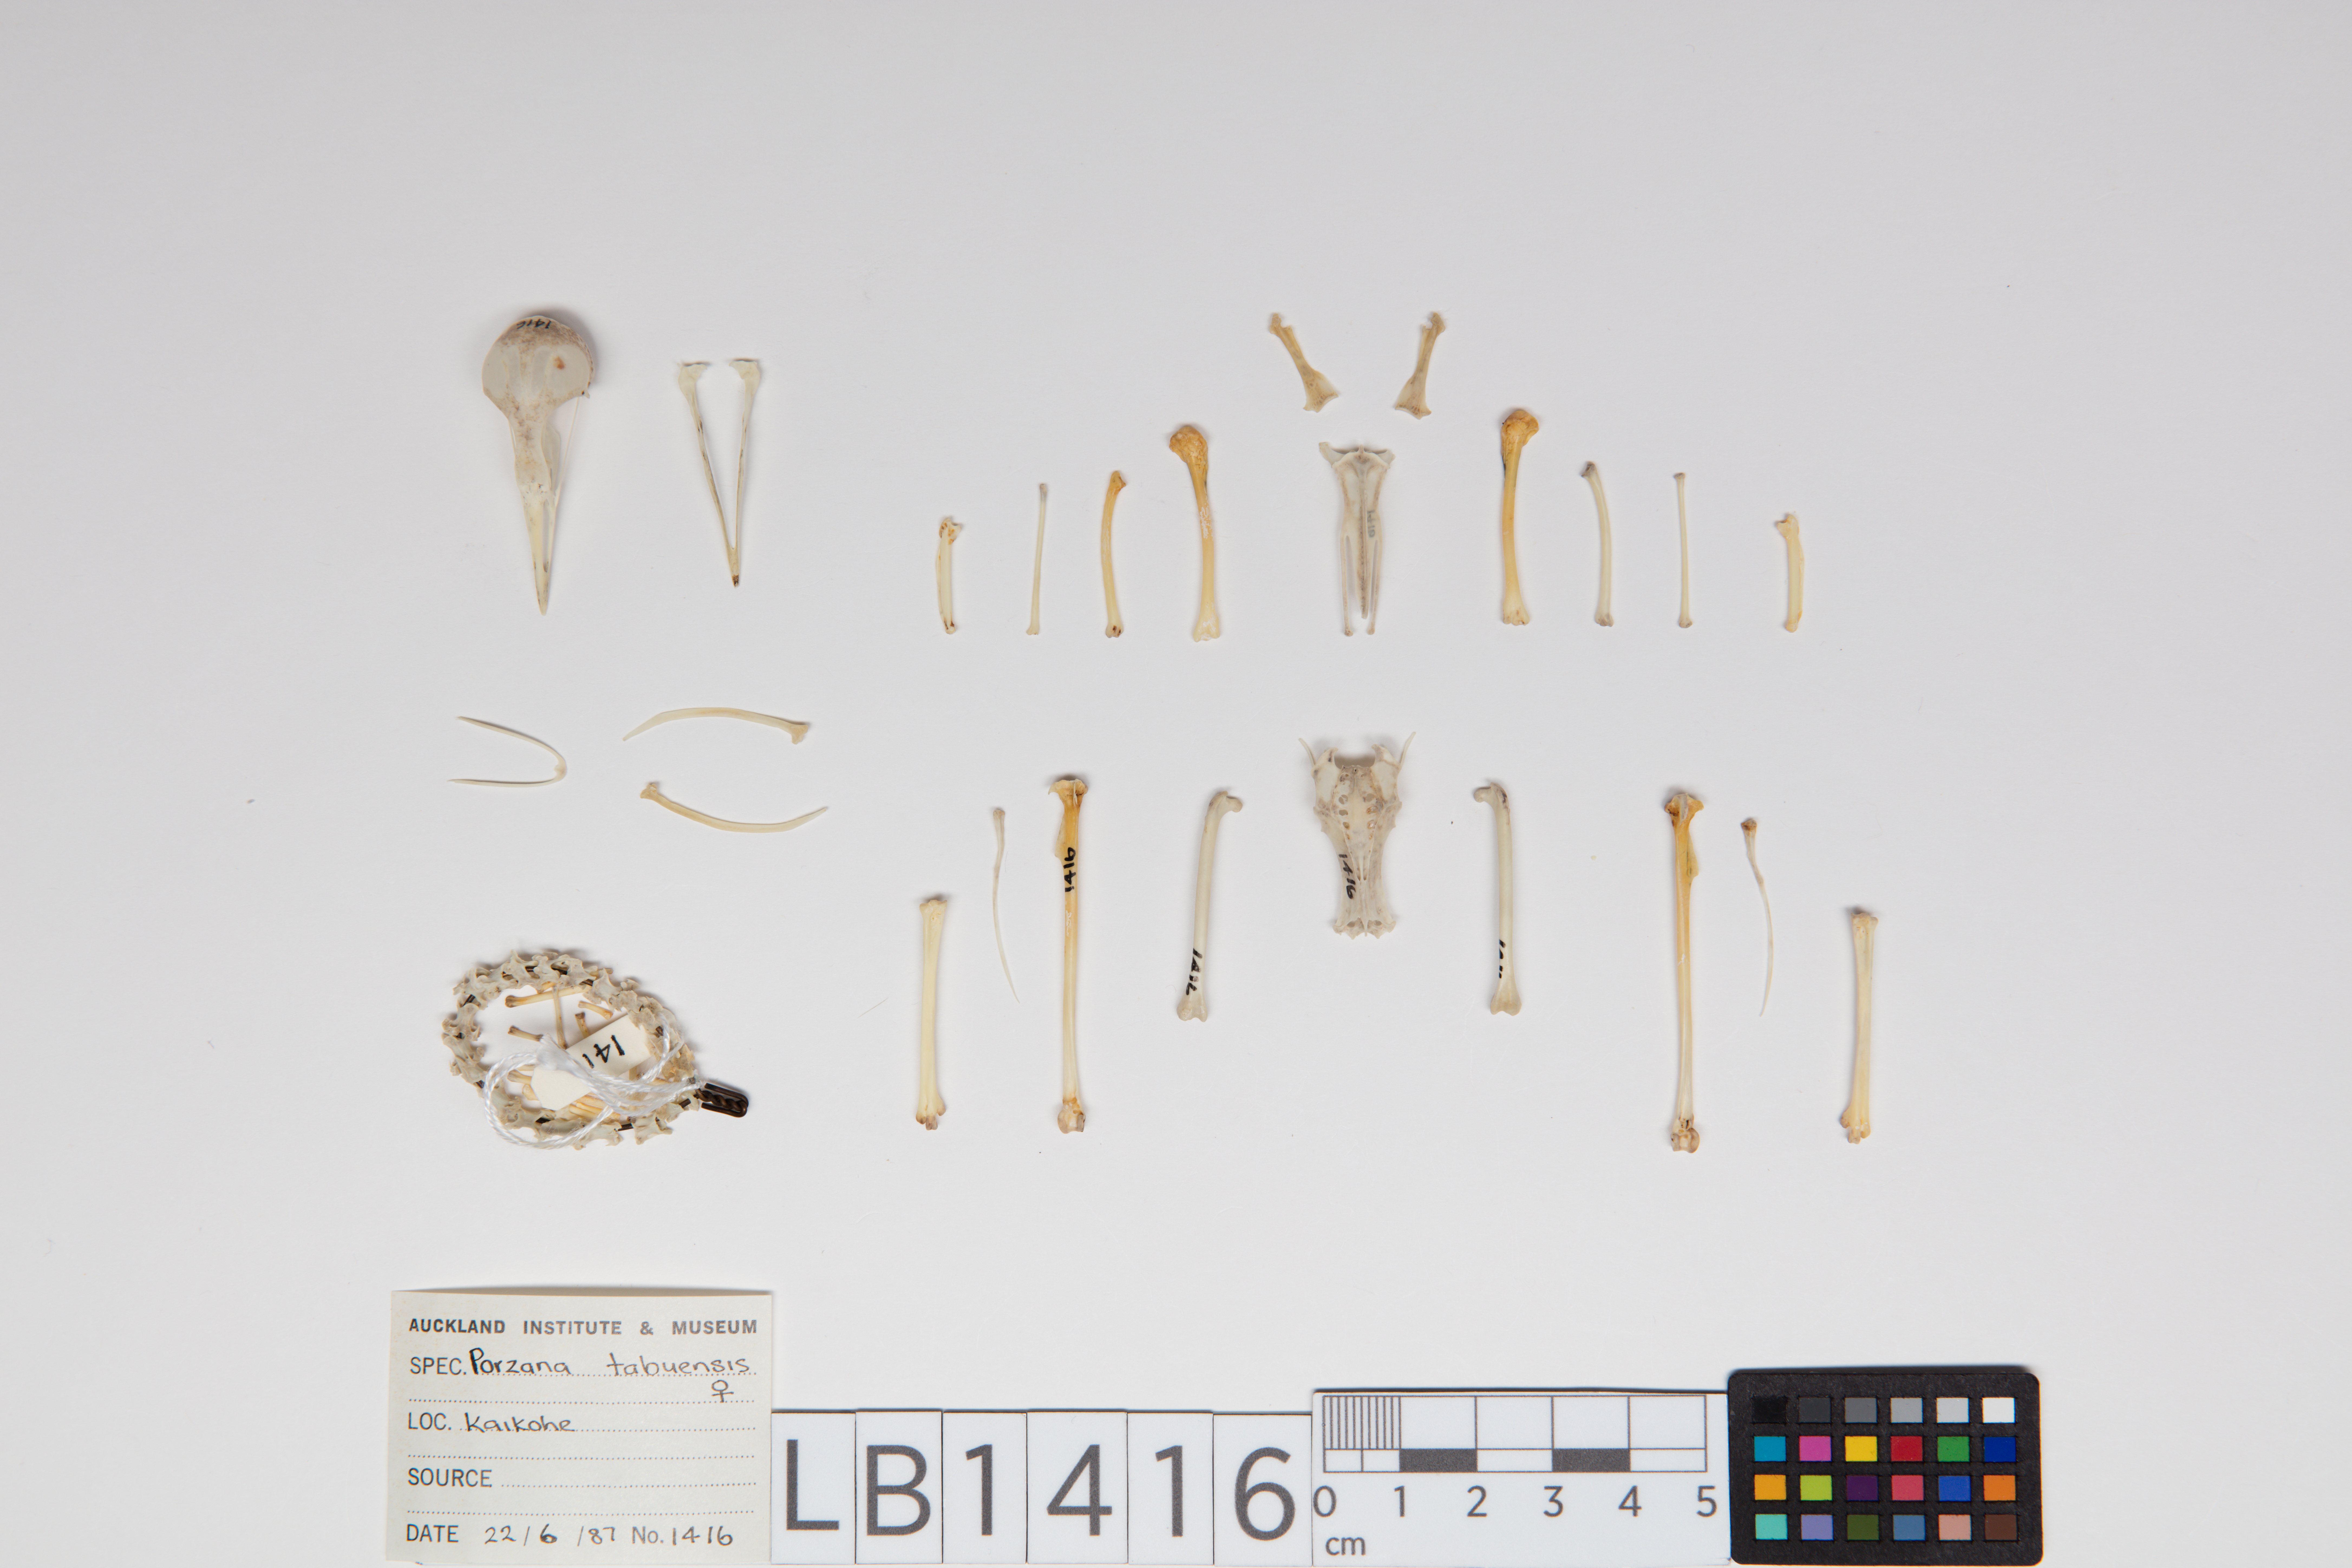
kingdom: Animalia
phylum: Chordata
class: Aves
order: Gruiformes
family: Rallidae
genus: Porzana
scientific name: Porzana tabuensis
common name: Spotless crake
